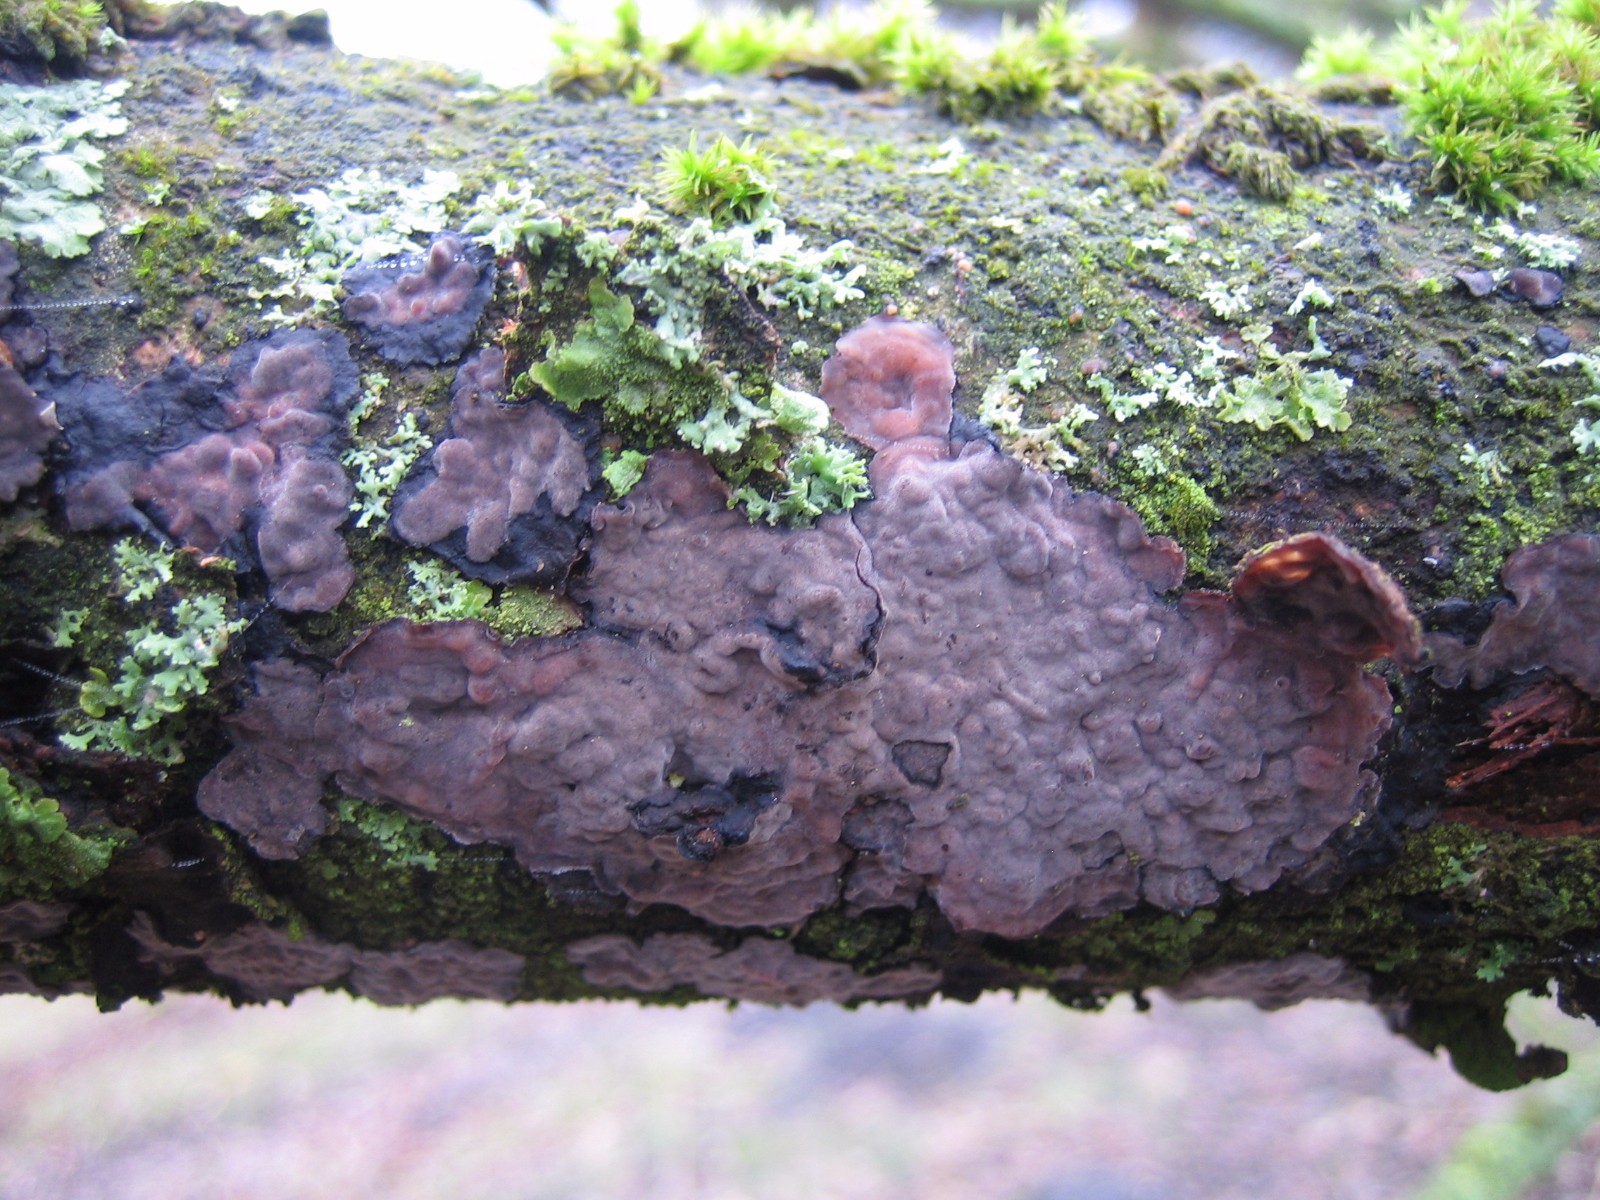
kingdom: Fungi
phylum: Basidiomycota
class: Agaricomycetes
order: Russulales
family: Peniophoraceae
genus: Peniophora
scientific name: Peniophora quercina
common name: ege-voksskind
